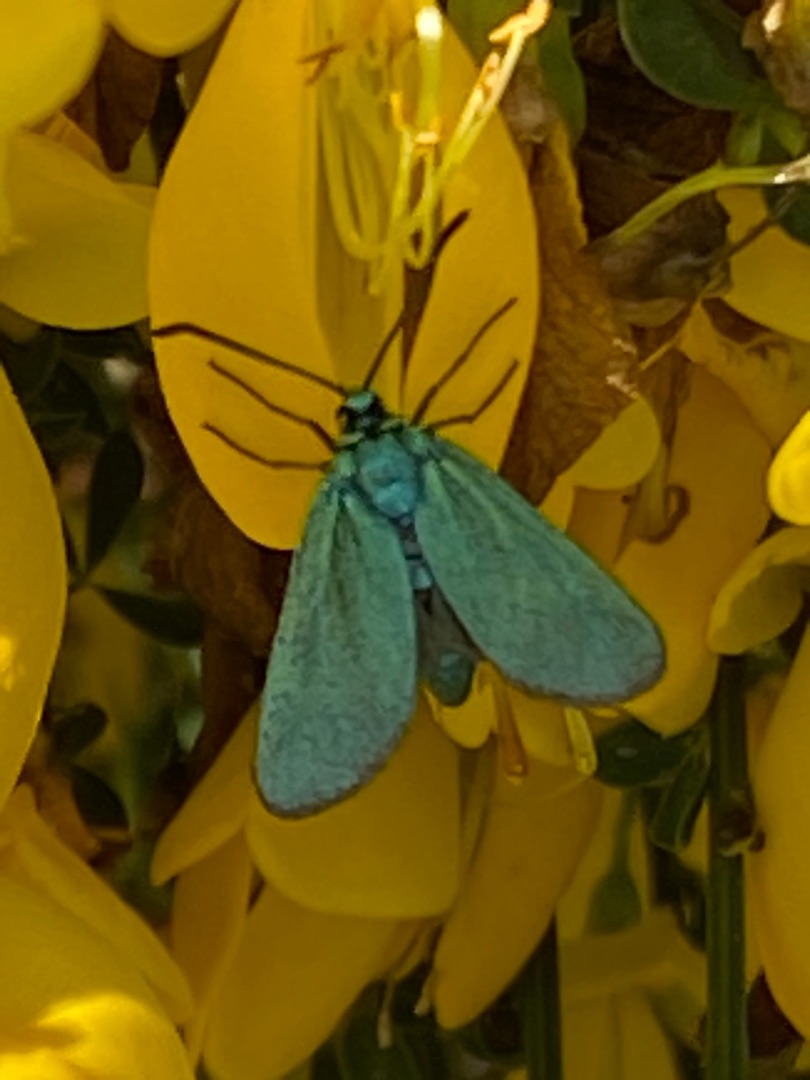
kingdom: Animalia
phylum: Arthropoda
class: Insecta
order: Lepidoptera
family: Zygaenidae
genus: Adscita
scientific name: Adscita statices
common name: Metalvinge
